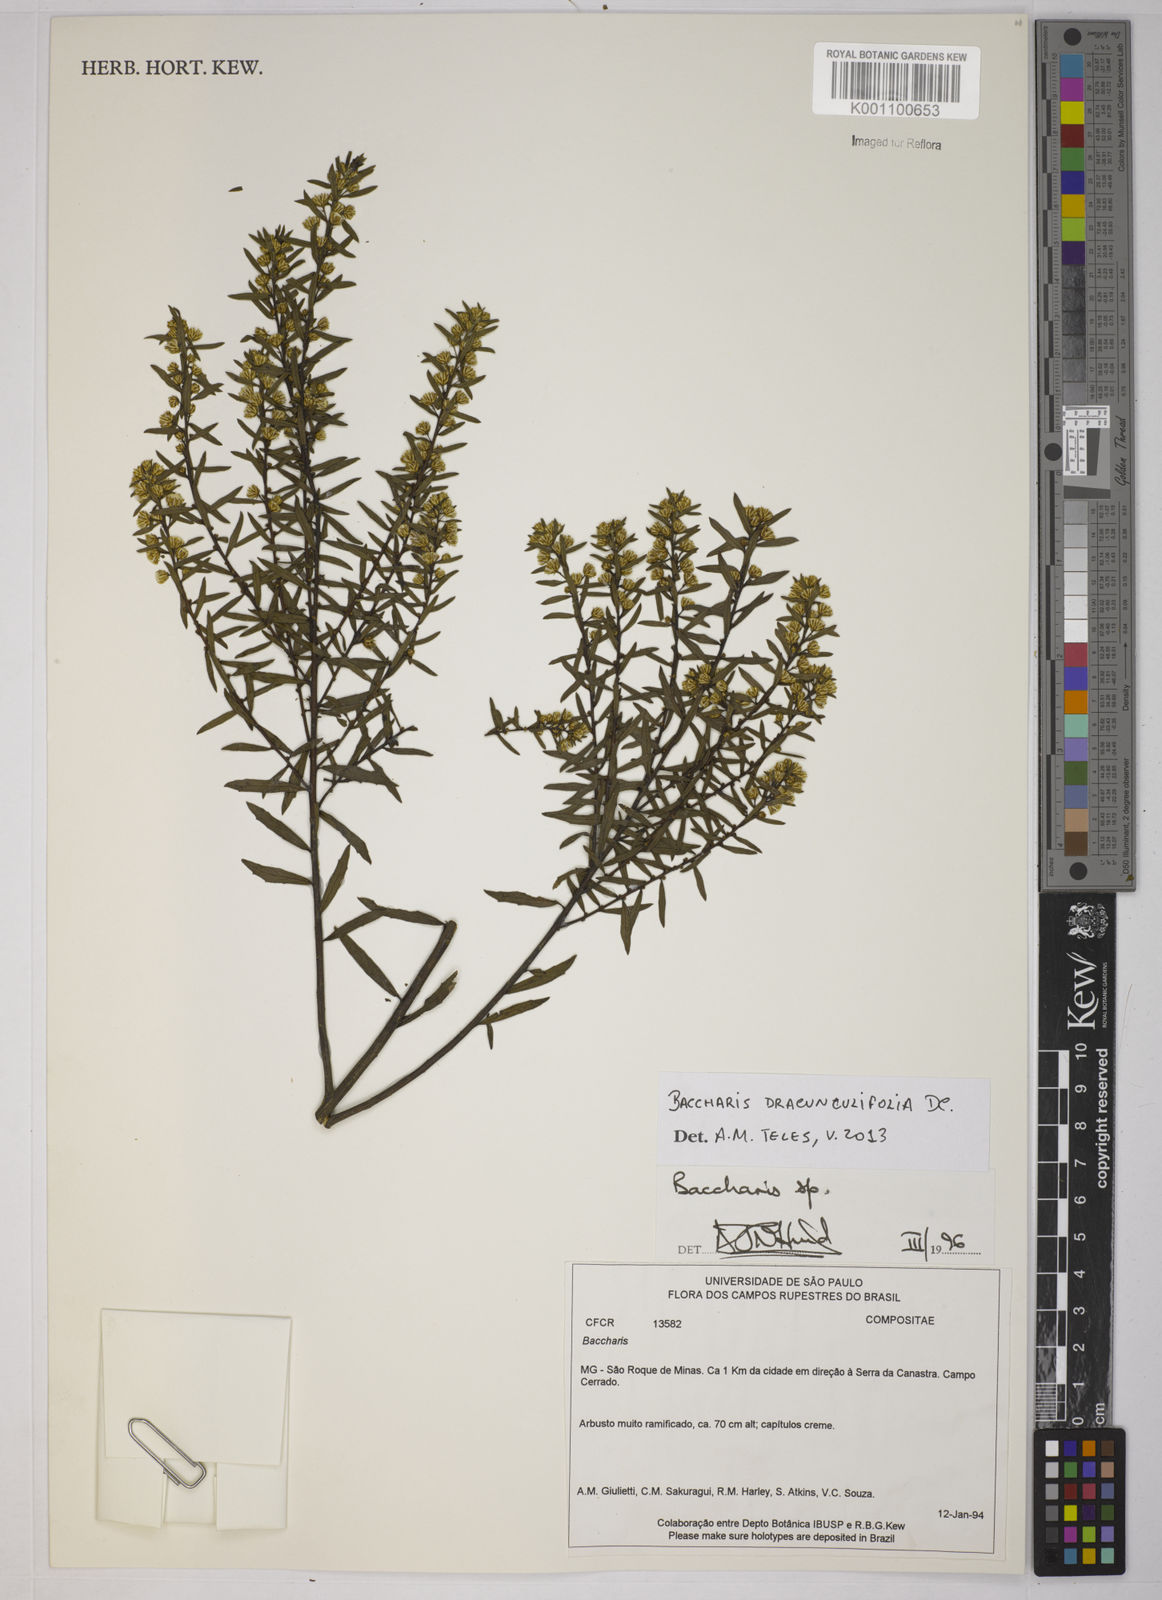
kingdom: Plantae
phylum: Tracheophyta
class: Magnoliopsida
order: Asterales
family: Asteraceae
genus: Baccharis
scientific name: Baccharis dracunculifolia
